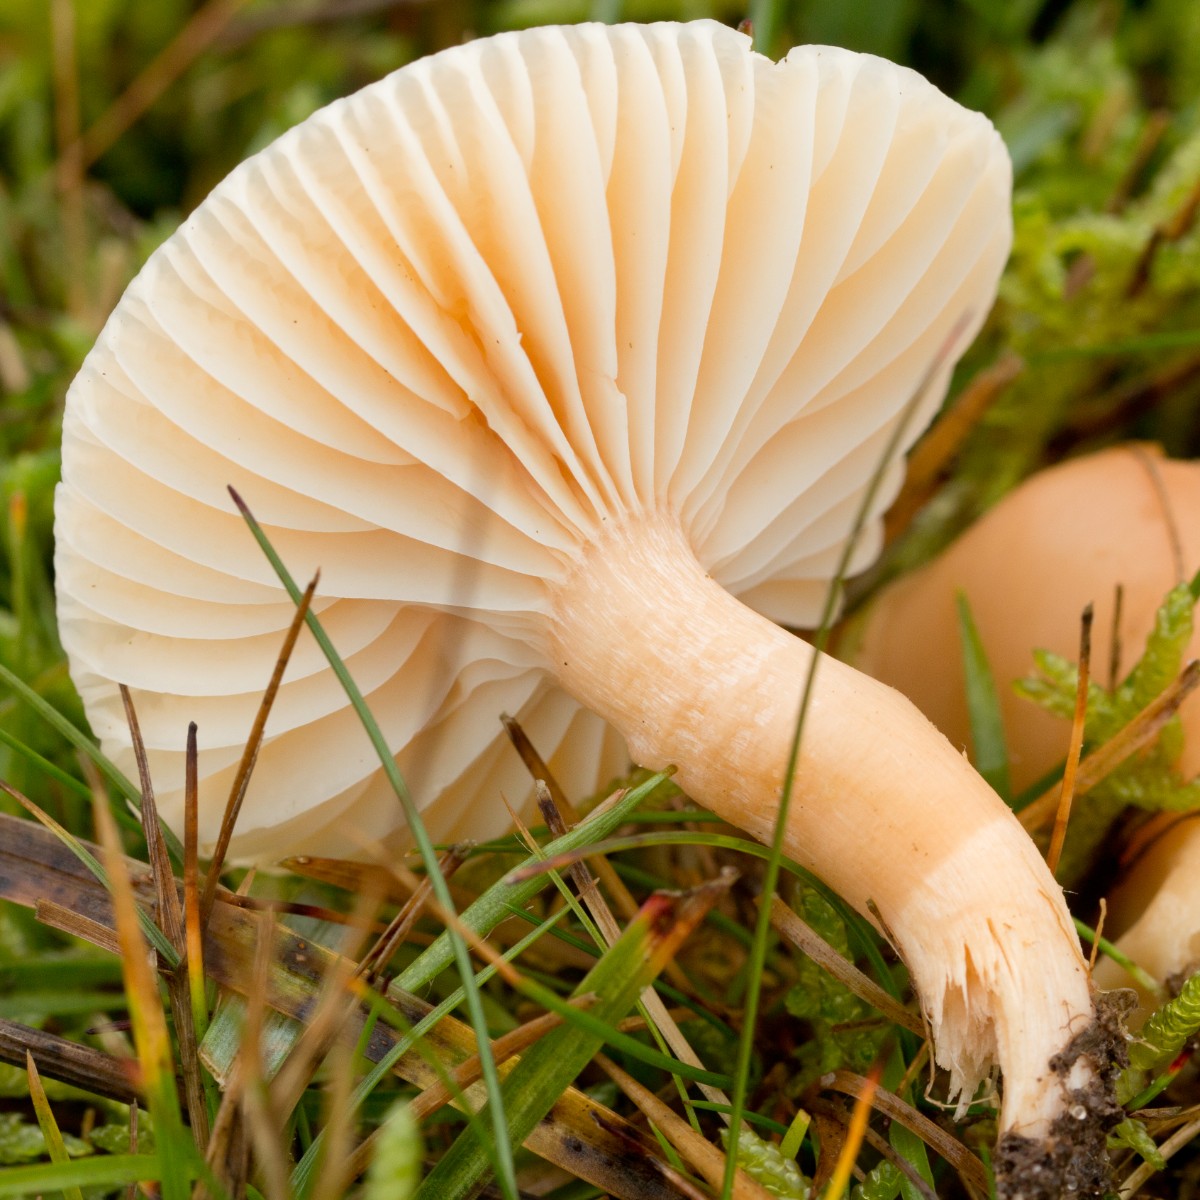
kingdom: Fungi
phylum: Basidiomycota
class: Agaricomycetes
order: Agaricales
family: Hygrophoraceae
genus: Cuphophyllus
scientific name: Cuphophyllus pratensis
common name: eng-vokshat
